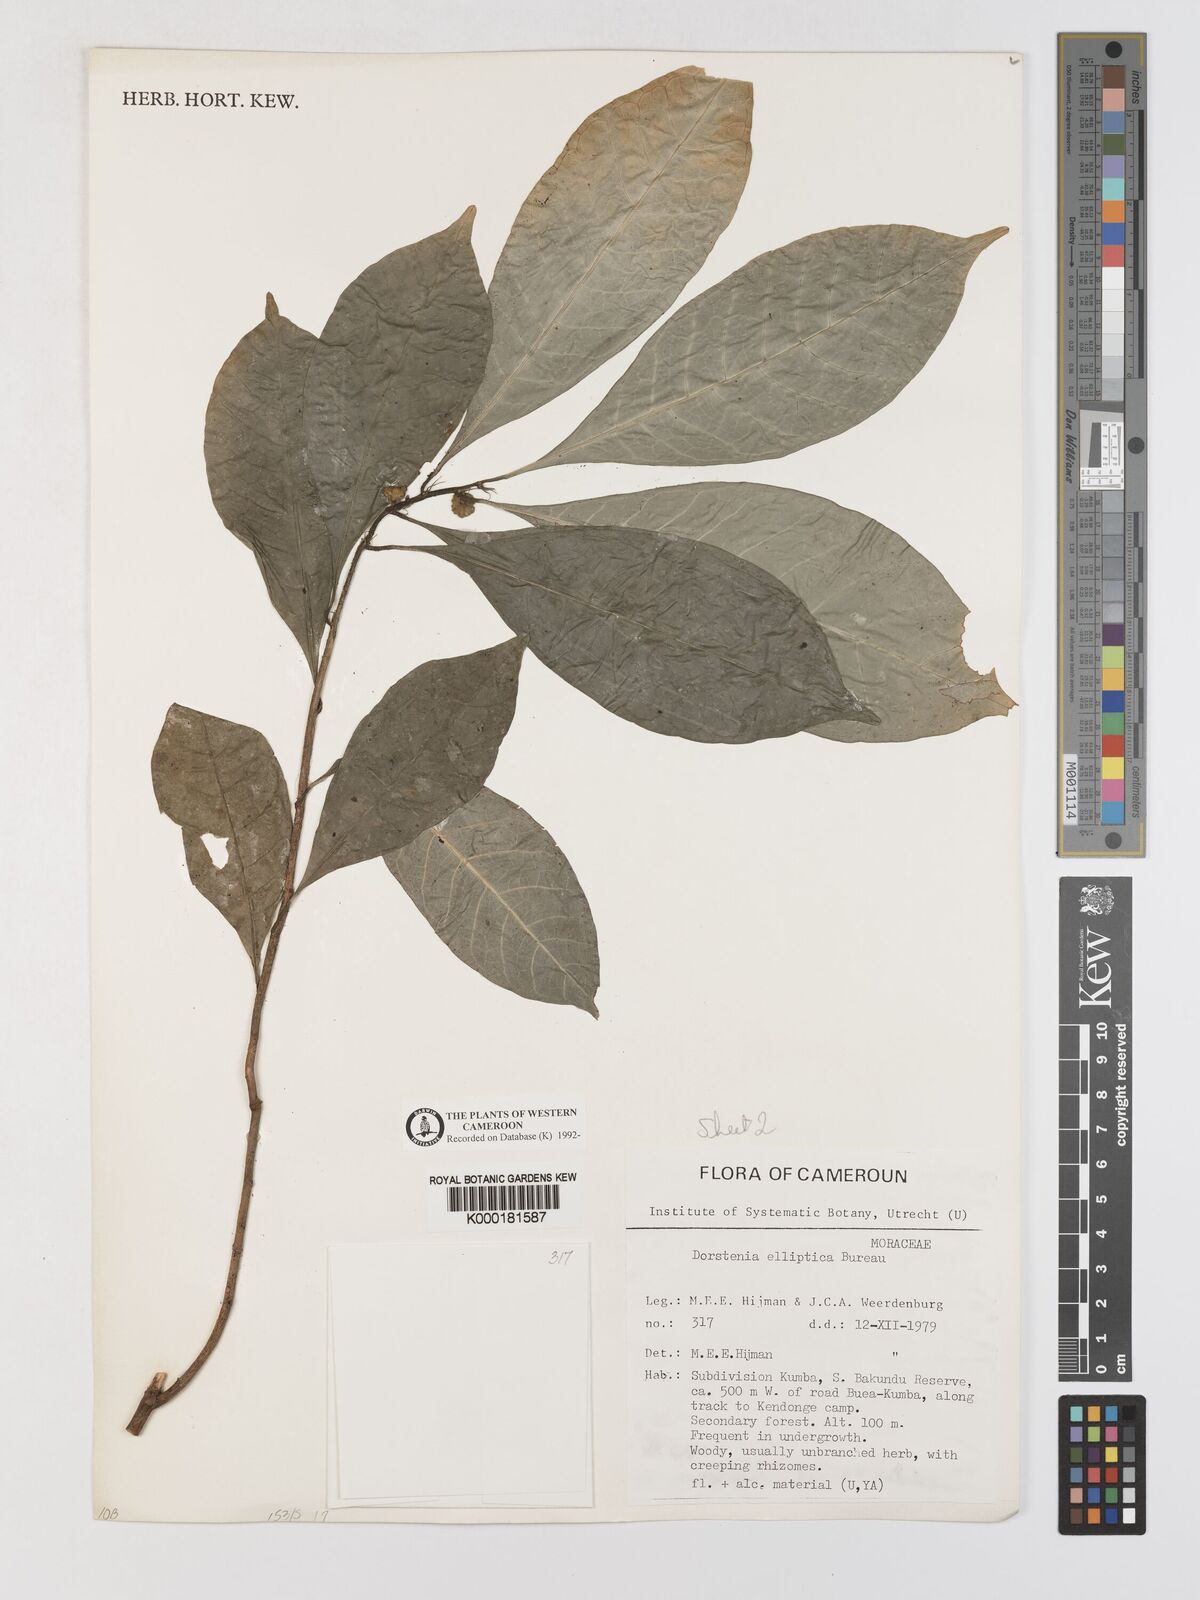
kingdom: Plantae
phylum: Tracheophyta
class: Magnoliopsida
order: Rosales
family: Moraceae
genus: Dorstenia
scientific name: Dorstenia elliptica
